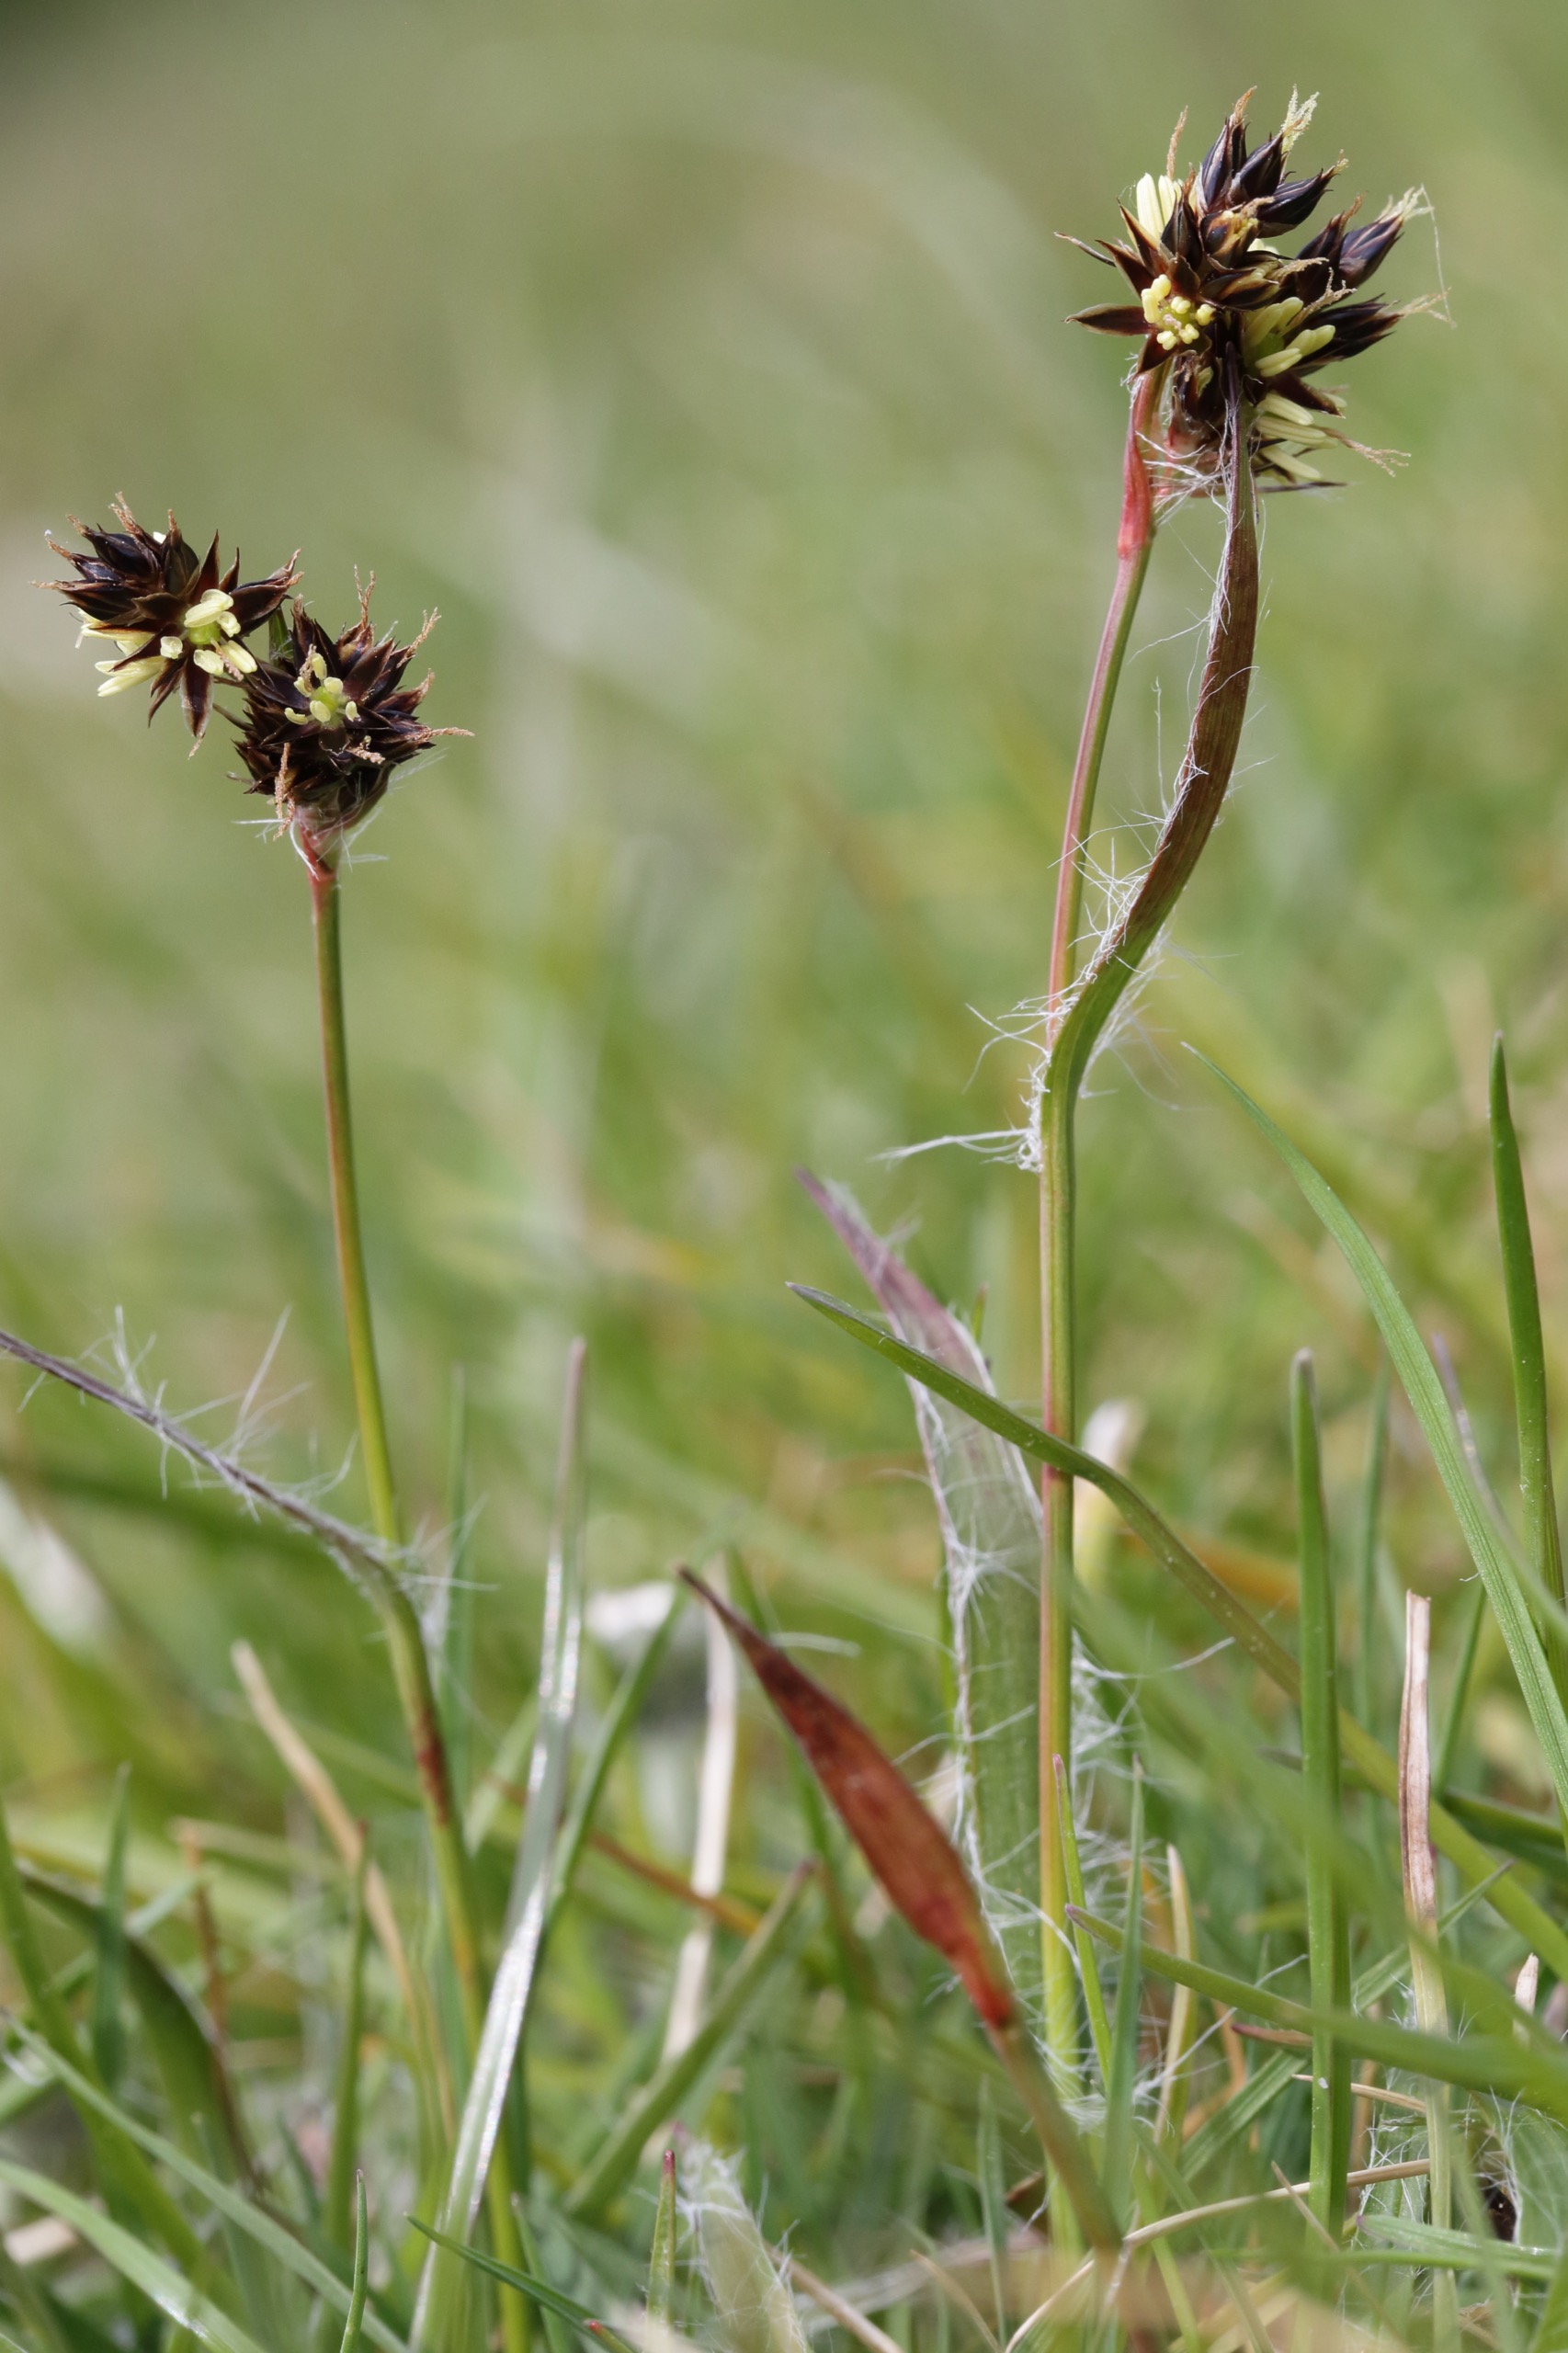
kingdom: Plantae
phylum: Tracheophyta
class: Liliopsida
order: Poales
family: Juncaceae
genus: Luzula
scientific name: Luzula campestris
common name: Mark-frytle
